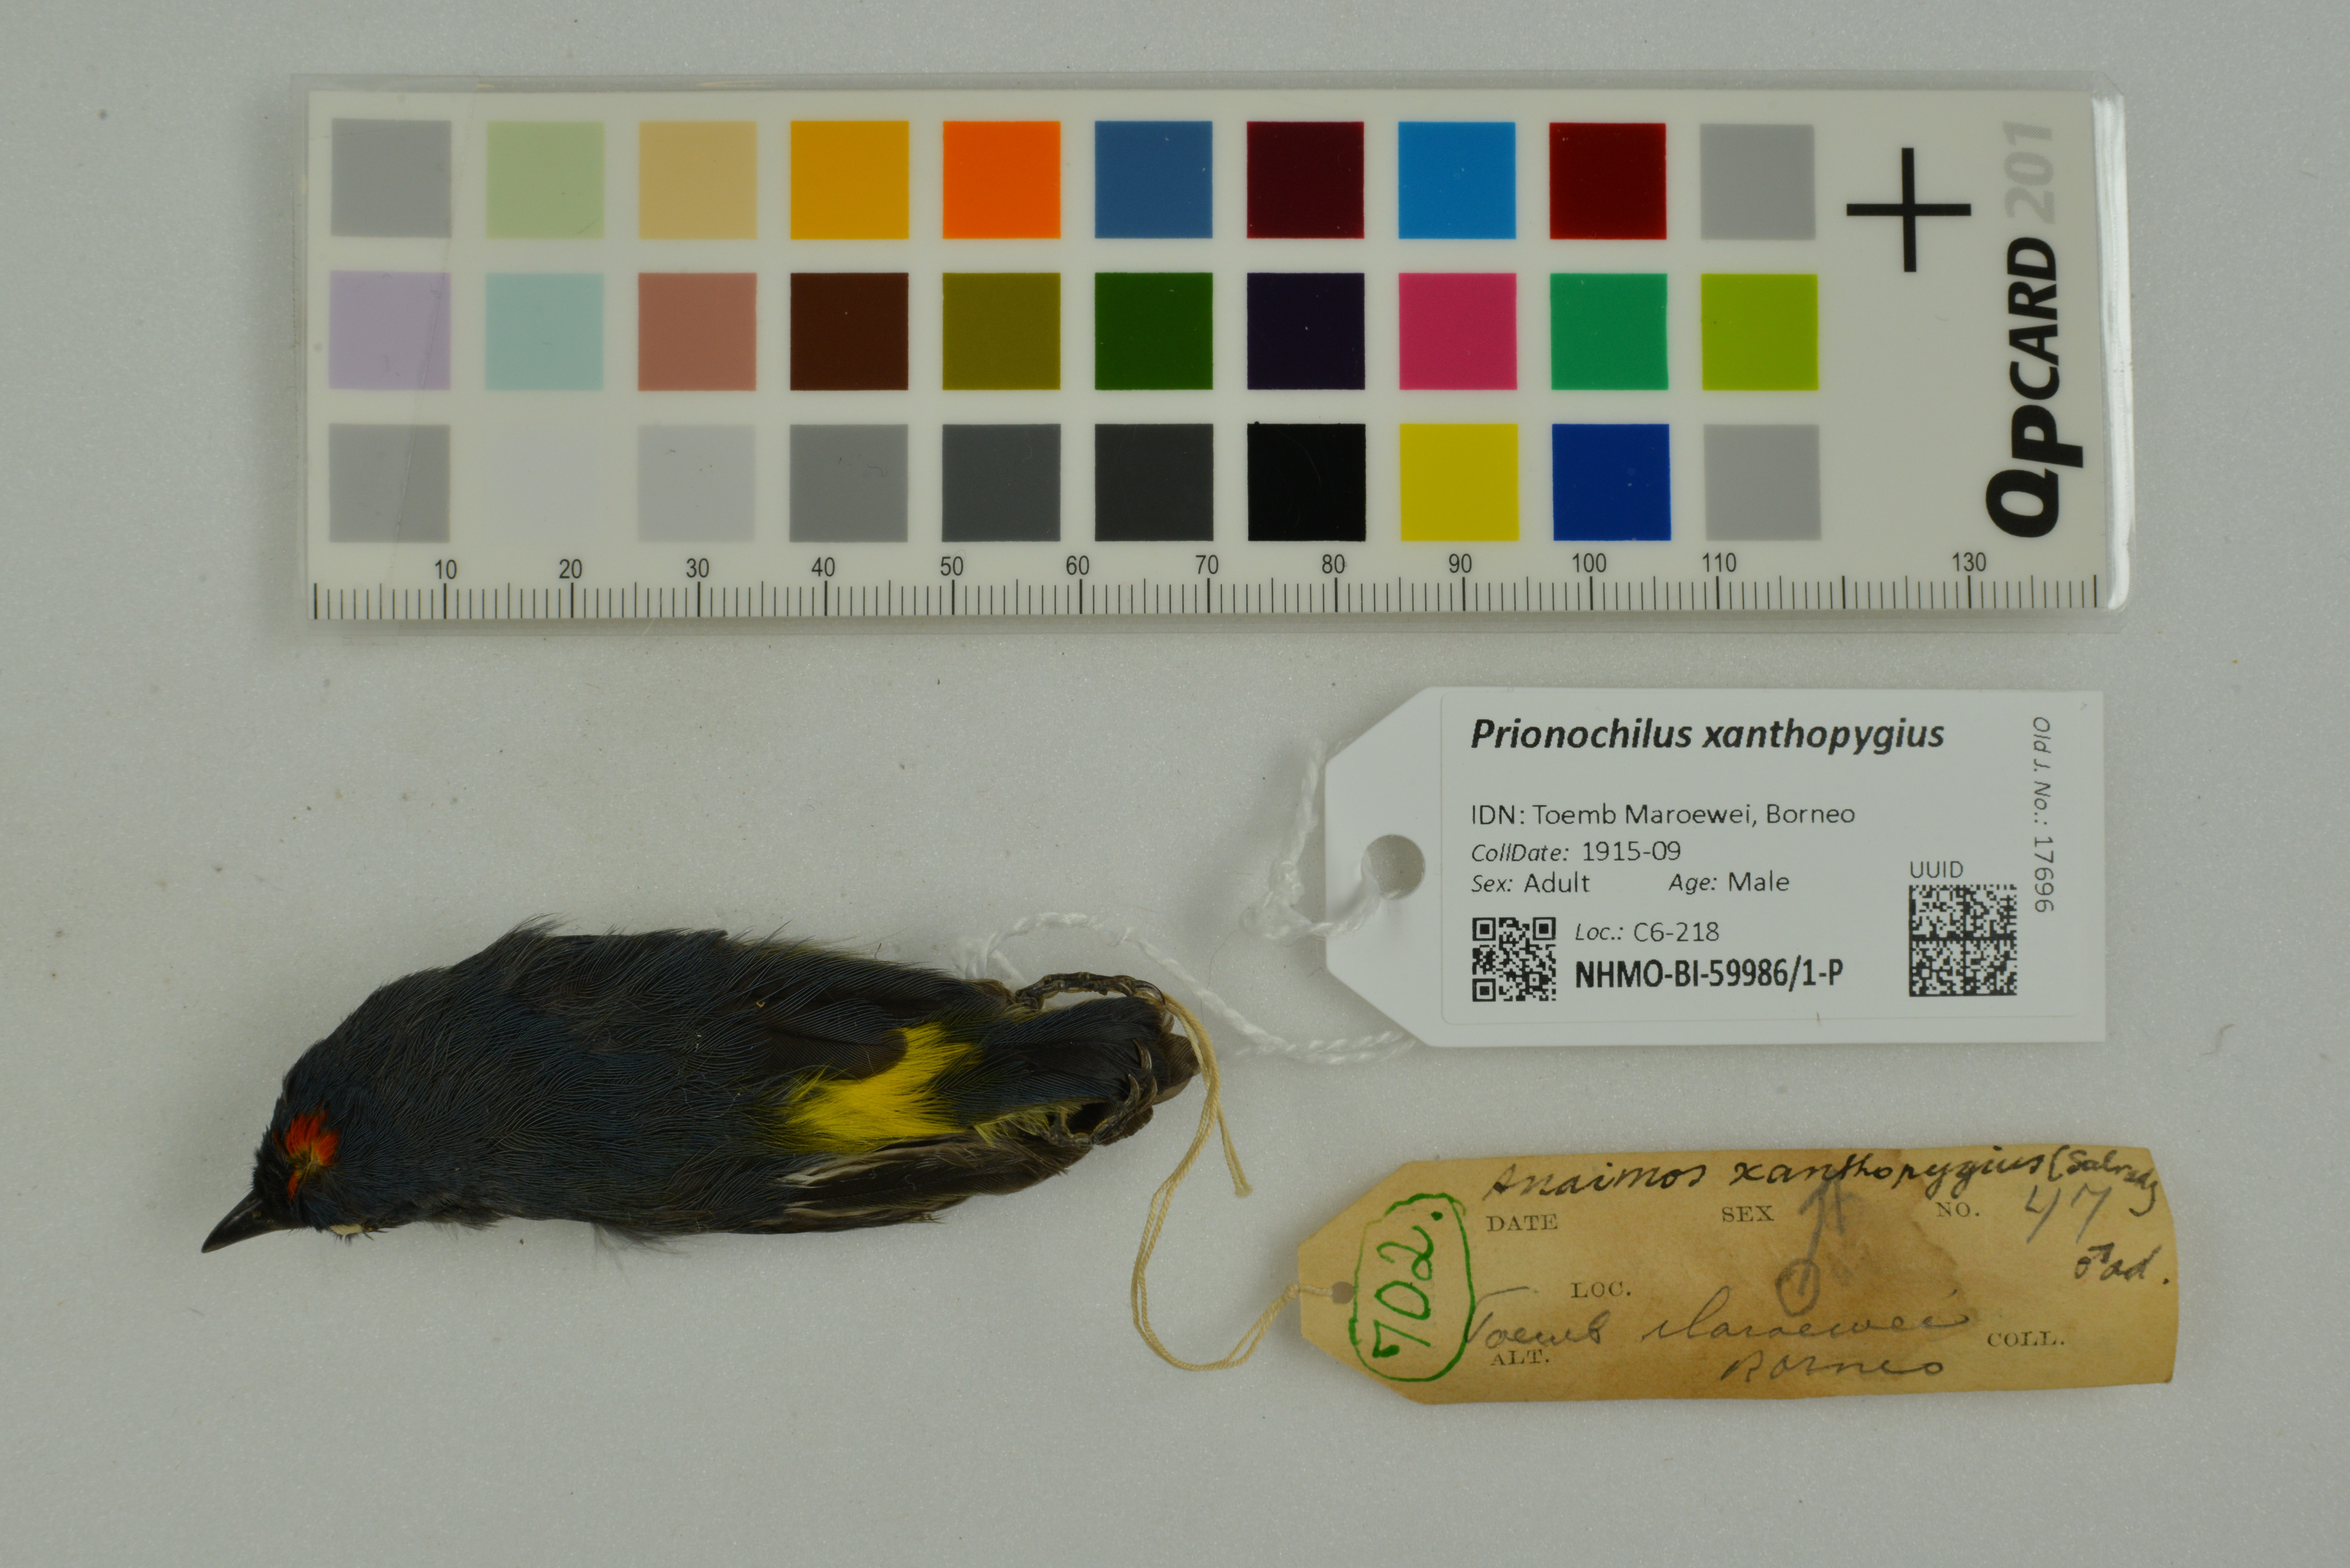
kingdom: Animalia
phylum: Chordata
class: Aves
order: Passeriformes
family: Dicaeidae
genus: Prionochilus
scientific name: Prionochilus xanthopygius
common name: Yellow-rumped flowerpecker
